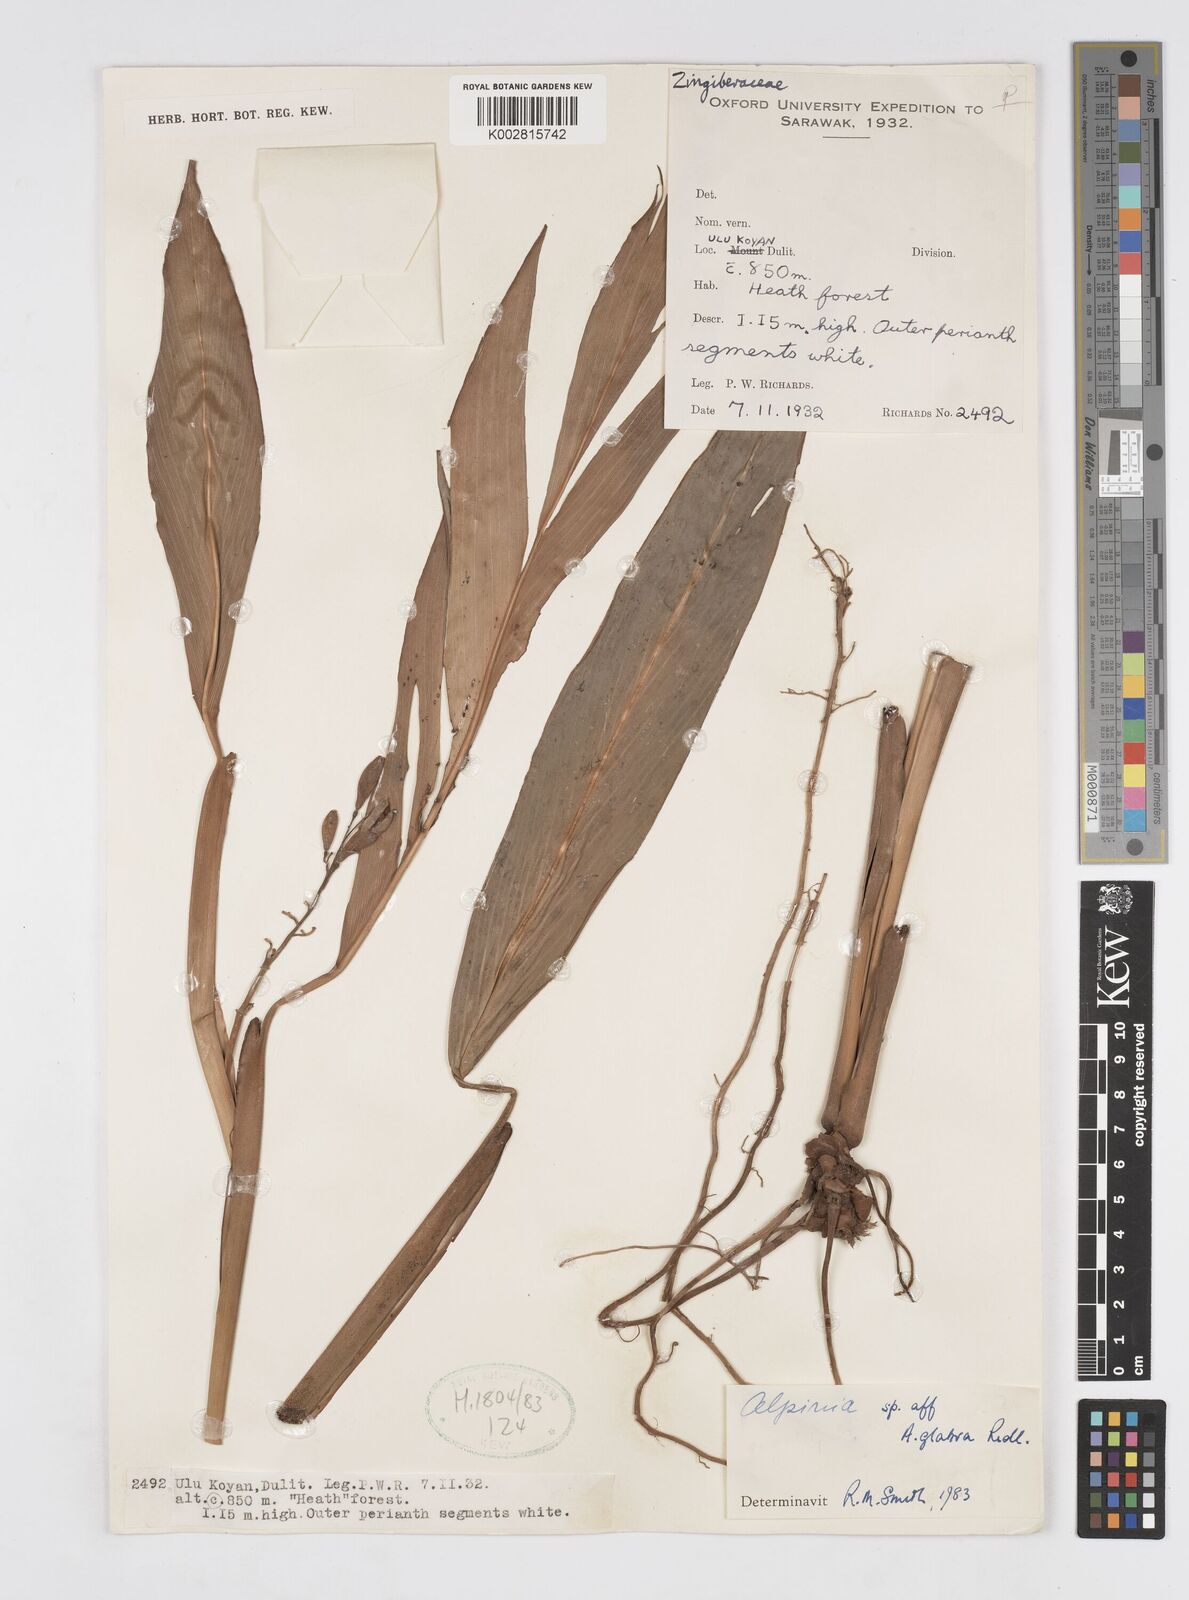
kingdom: Plantae
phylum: Tracheophyta
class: Liliopsida
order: Zingiberales
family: Zingiberaceae
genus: Alpinia
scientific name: Alpinia glabra
